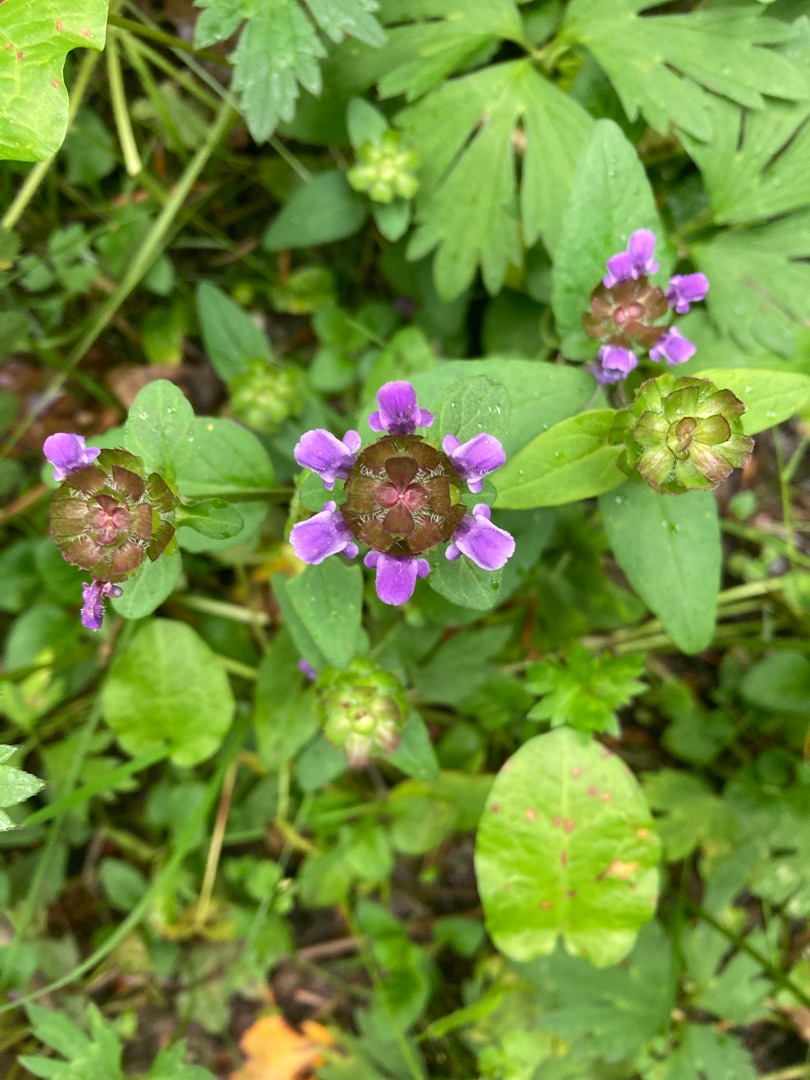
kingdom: Plantae
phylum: Tracheophyta
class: Magnoliopsida
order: Lamiales
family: Lamiaceae
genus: Prunella
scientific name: Prunella vulgaris
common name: Almindelig brunelle
